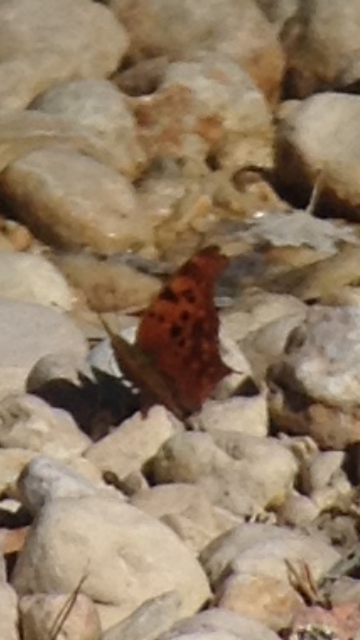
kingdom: Animalia
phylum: Arthropoda
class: Insecta
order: Lepidoptera
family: Nymphalidae
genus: Polygonia
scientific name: Polygonia interrogationis
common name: Question Mark
